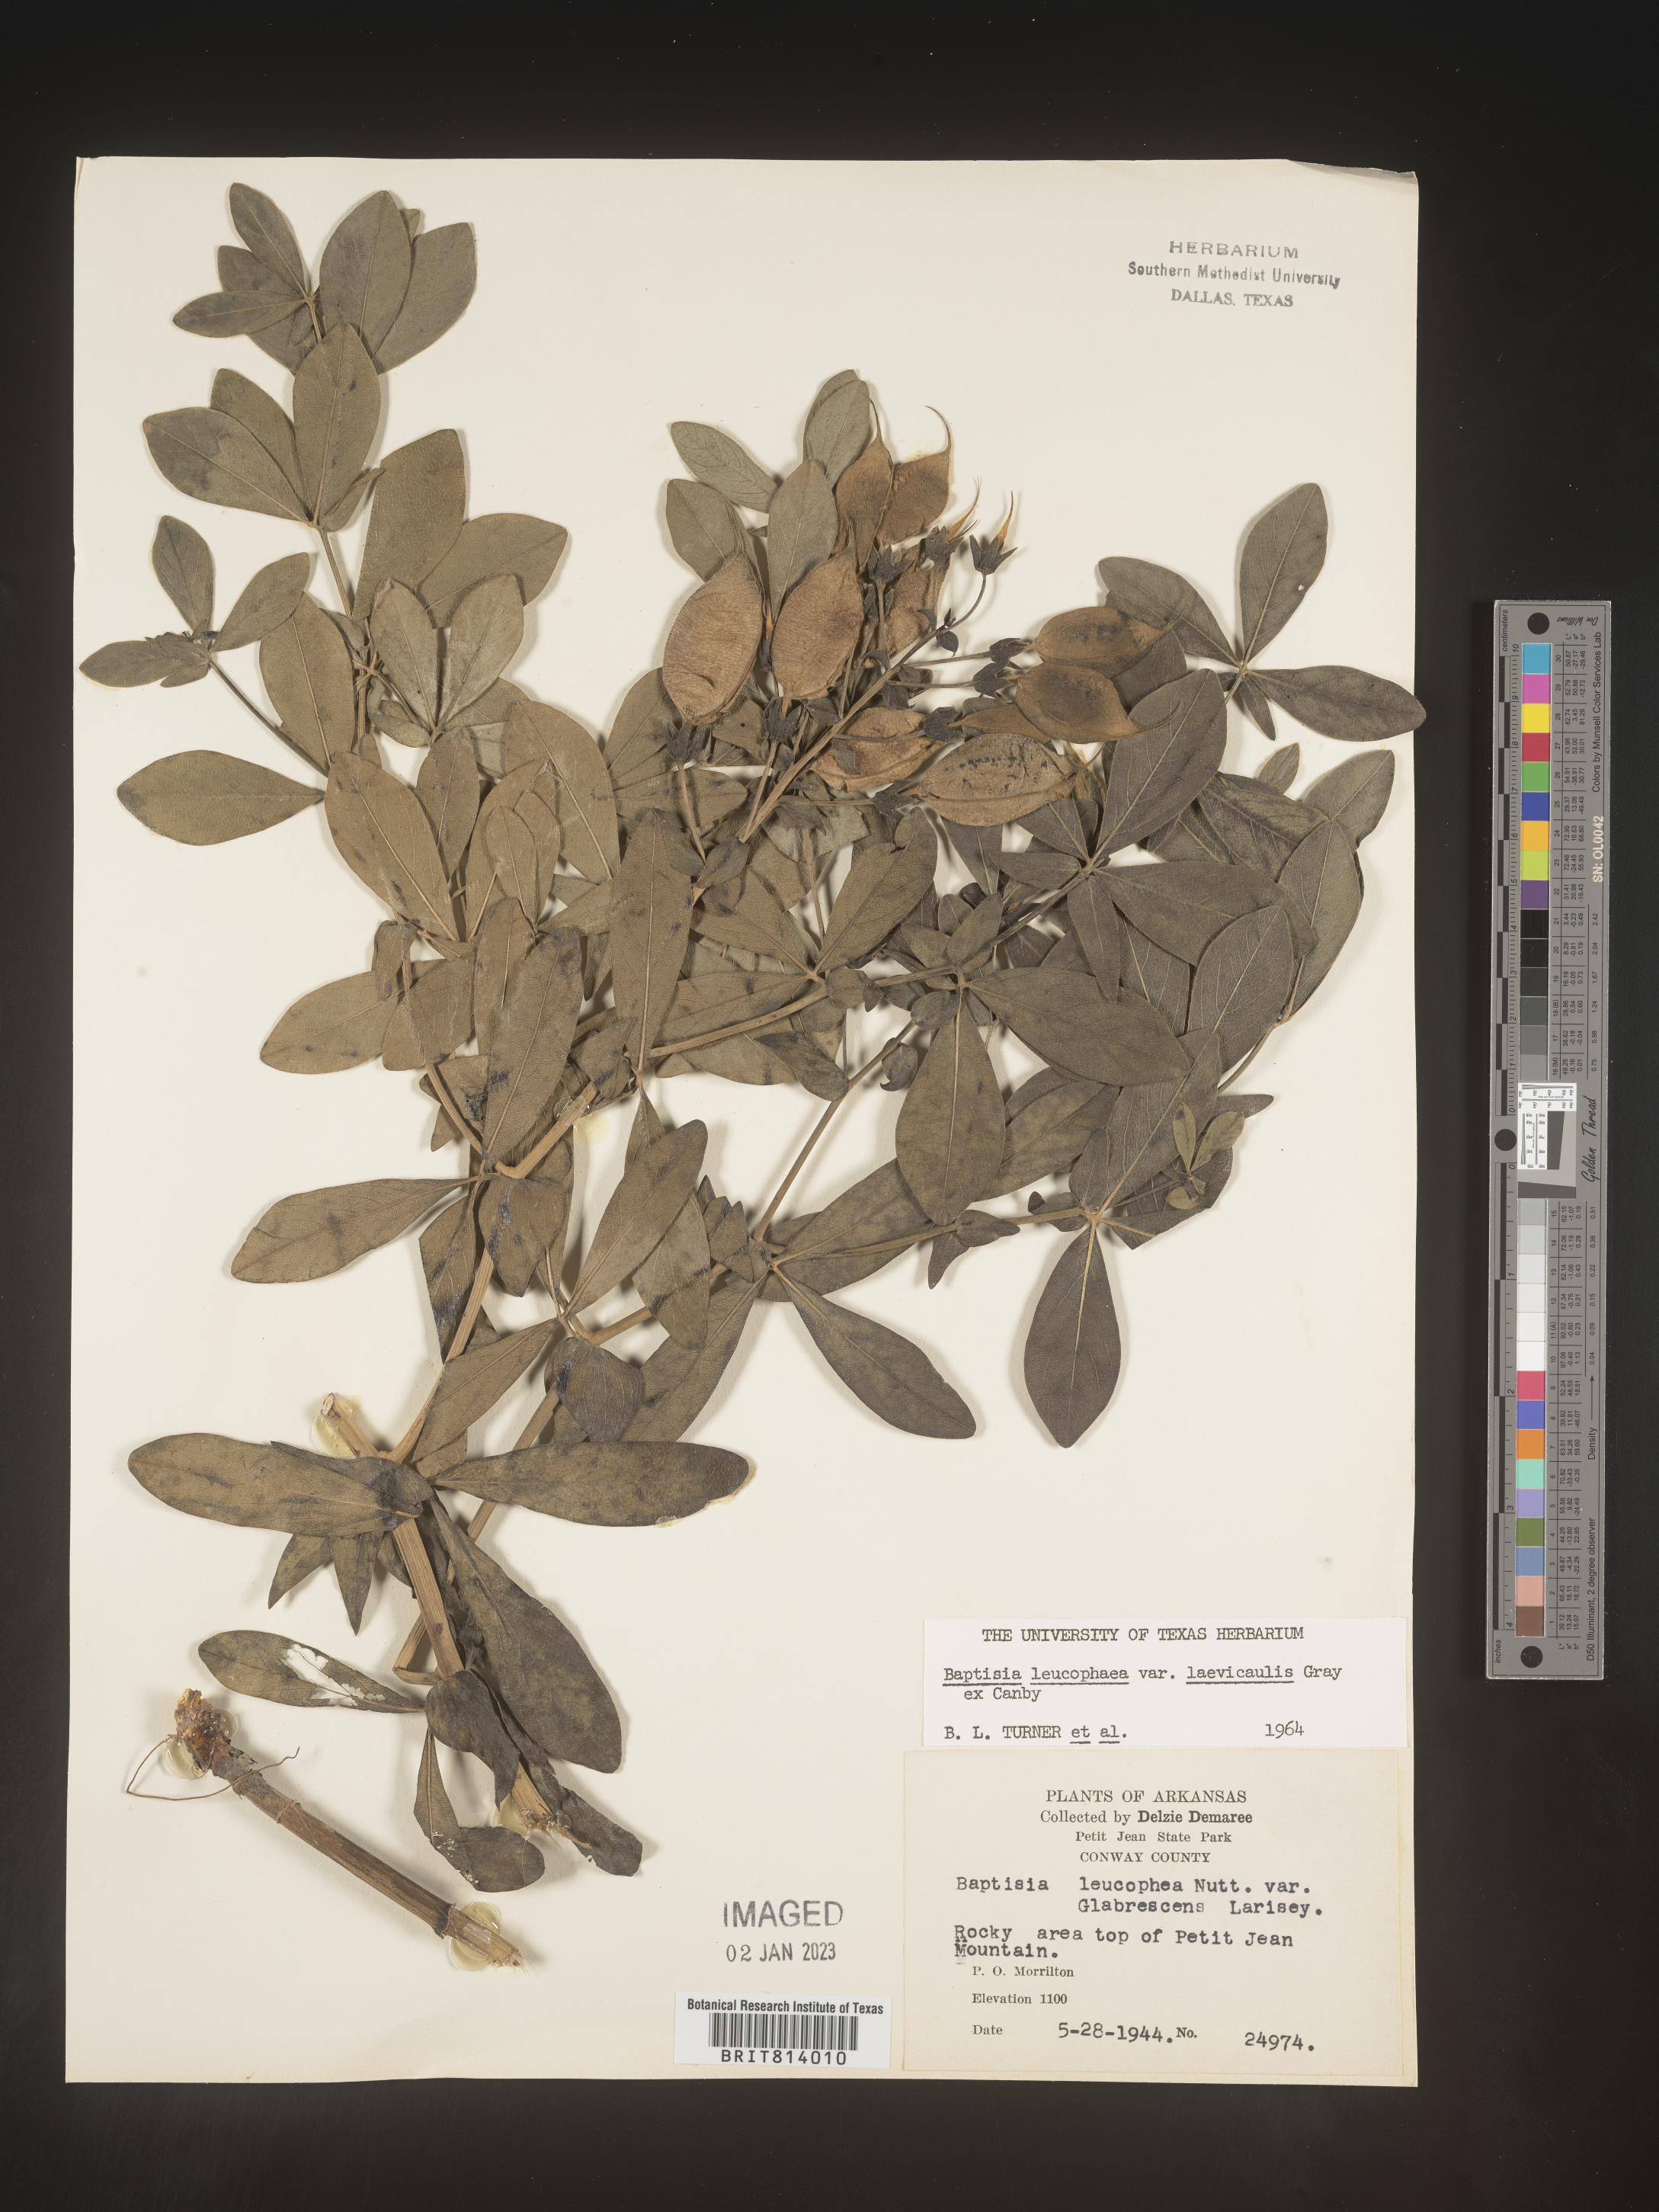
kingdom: Plantae
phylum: Tracheophyta
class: Magnoliopsida
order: Fabales
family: Fabaceae
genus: Baptisia
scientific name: Baptisia bracteata
